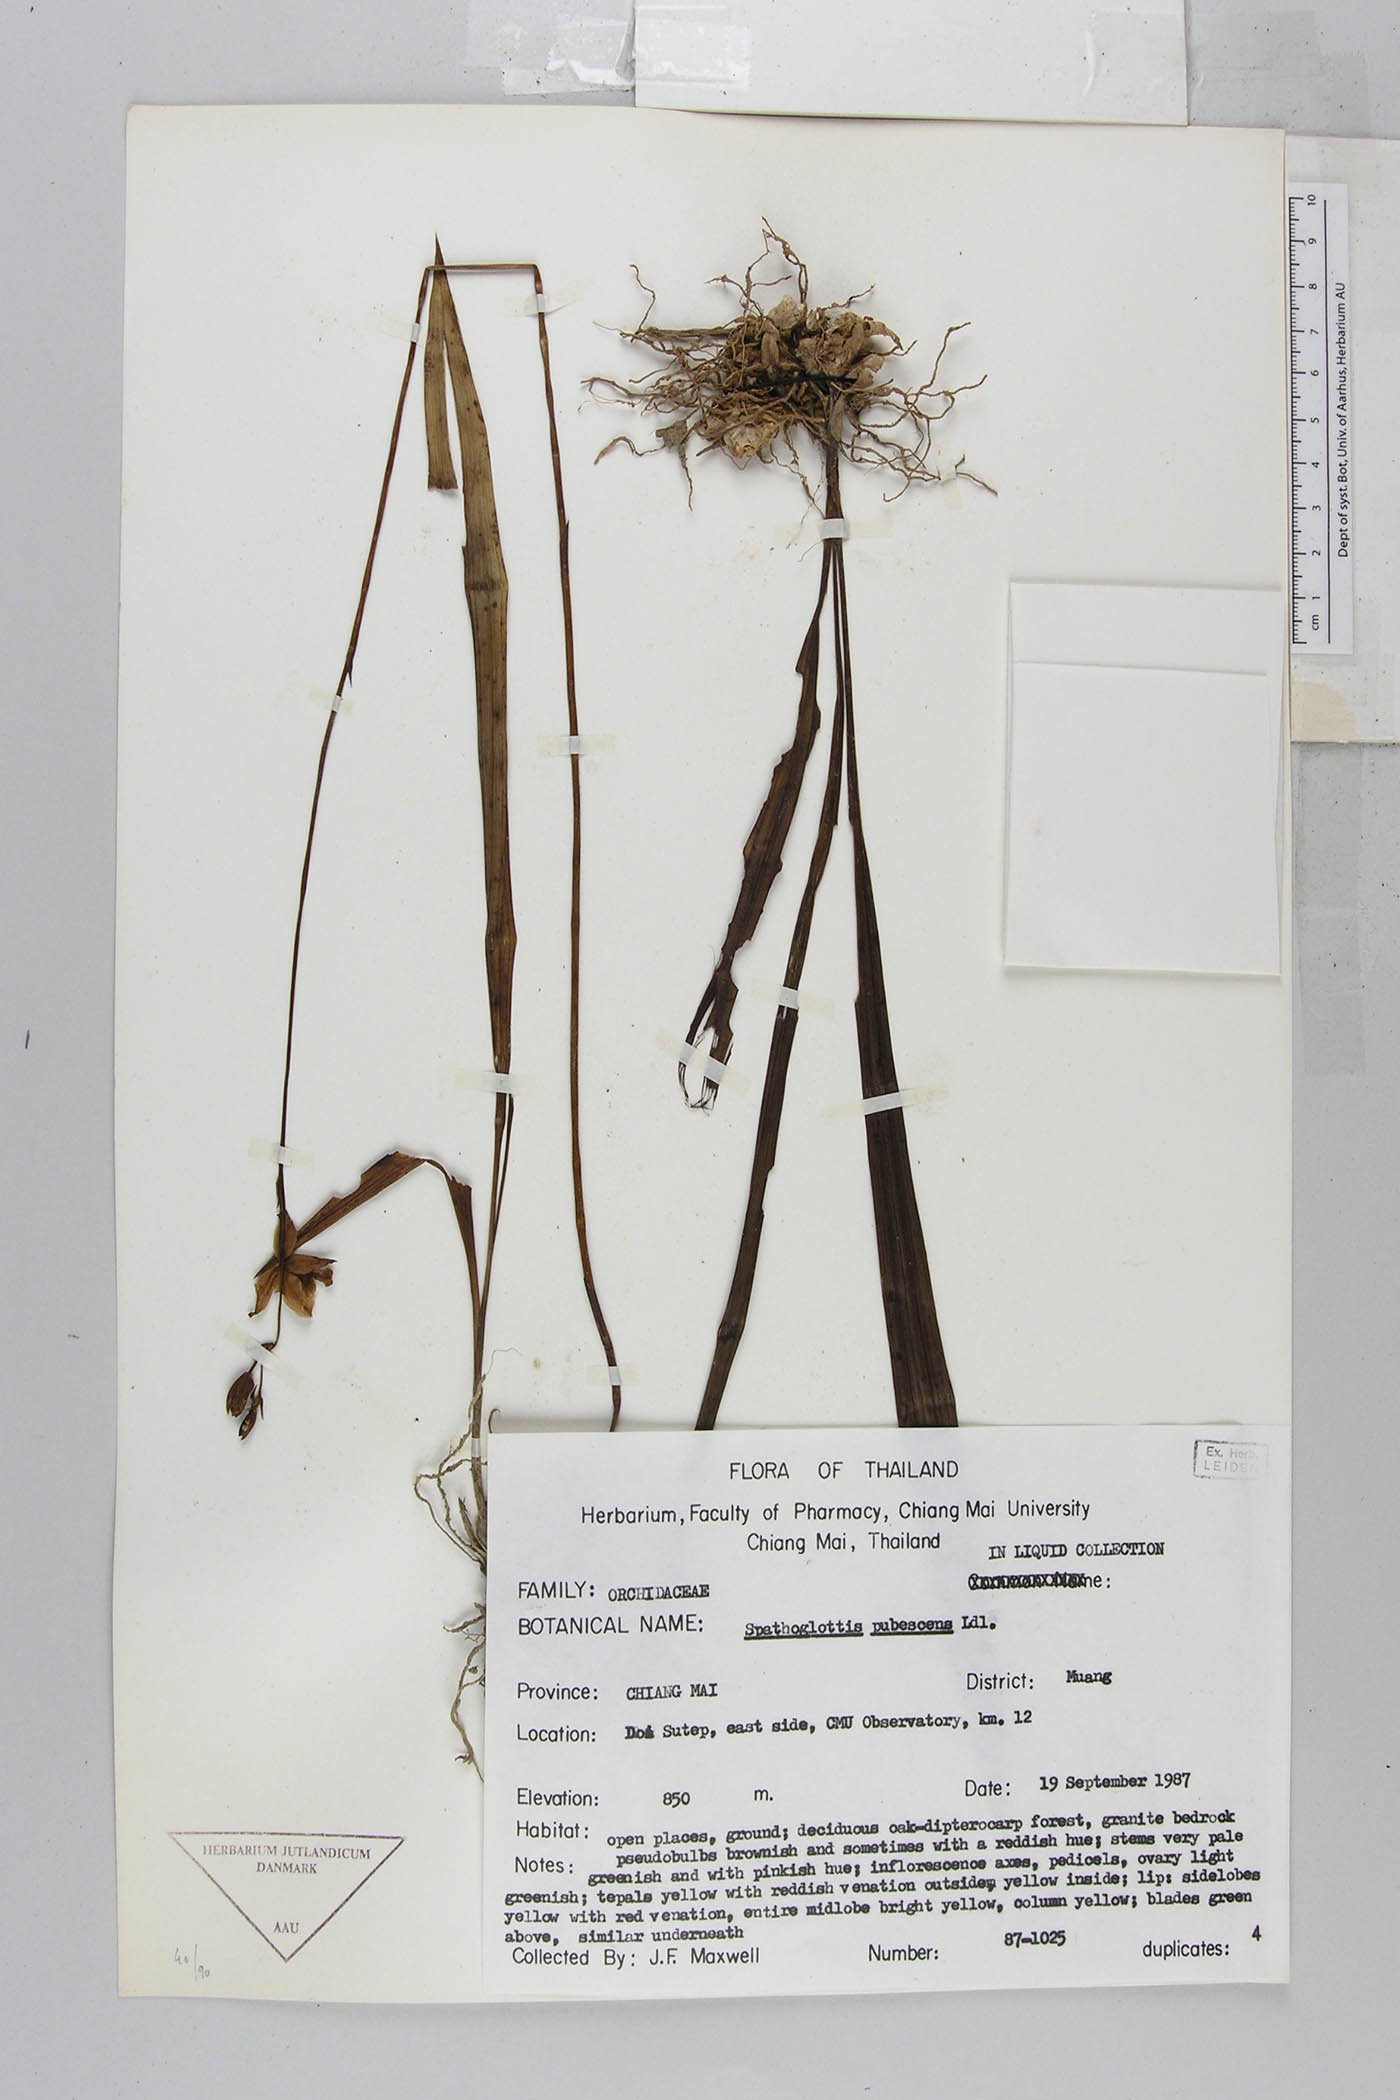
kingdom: Plantae
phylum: Tracheophyta
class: Liliopsida
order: Asparagales
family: Orchidaceae
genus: Spathoglottis
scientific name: Spathoglottis pubescens
